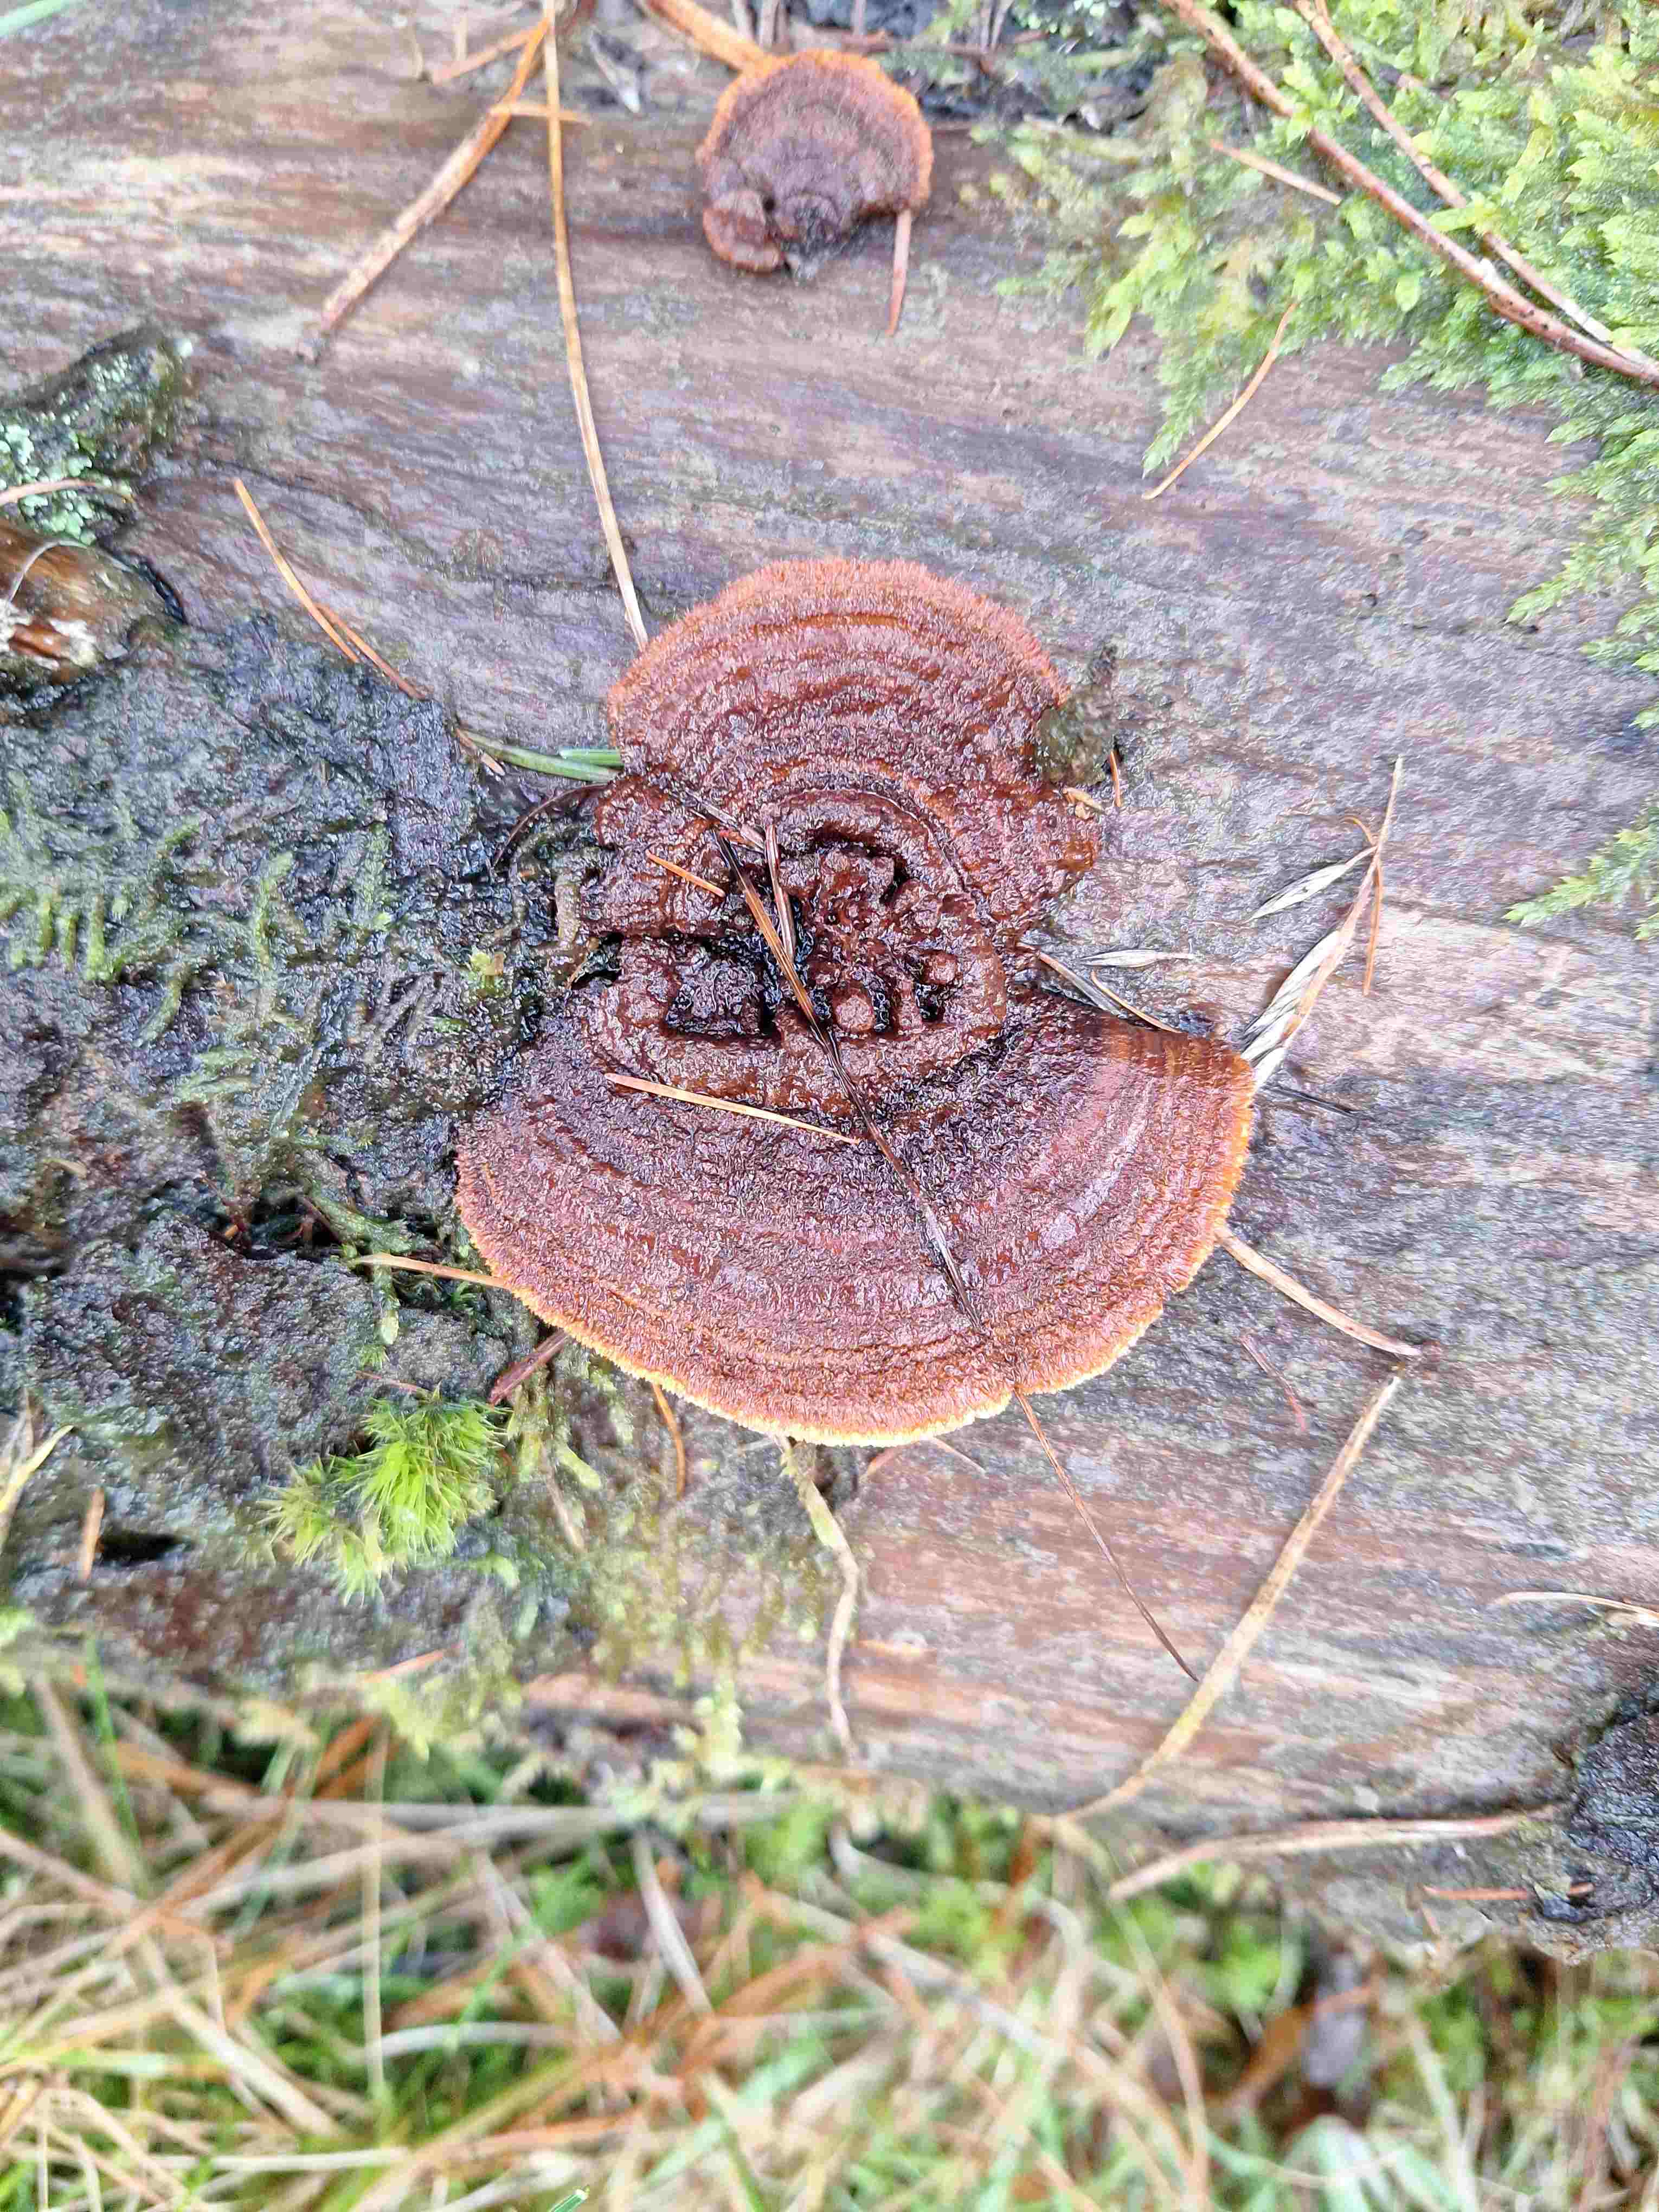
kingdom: Fungi
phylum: Basidiomycota
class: Agaricomycetes
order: Gloeophyllales
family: Gloeophyllaceae
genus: Gloeophyllum
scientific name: Gloeophyllum sepiarium
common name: fyrre-korkhat
